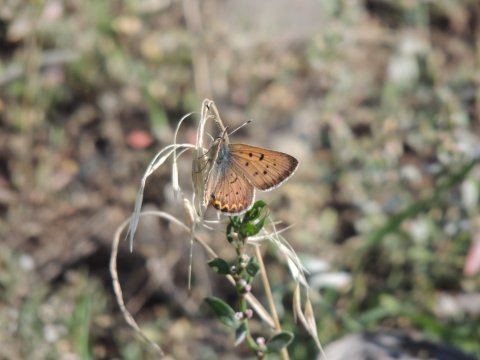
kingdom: Animalia
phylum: Arthropoda
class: Insecta
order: Lepidoptera
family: Sesiidae
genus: Sesia
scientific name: Sesia Lycaena helloides
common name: Purplish Copper
